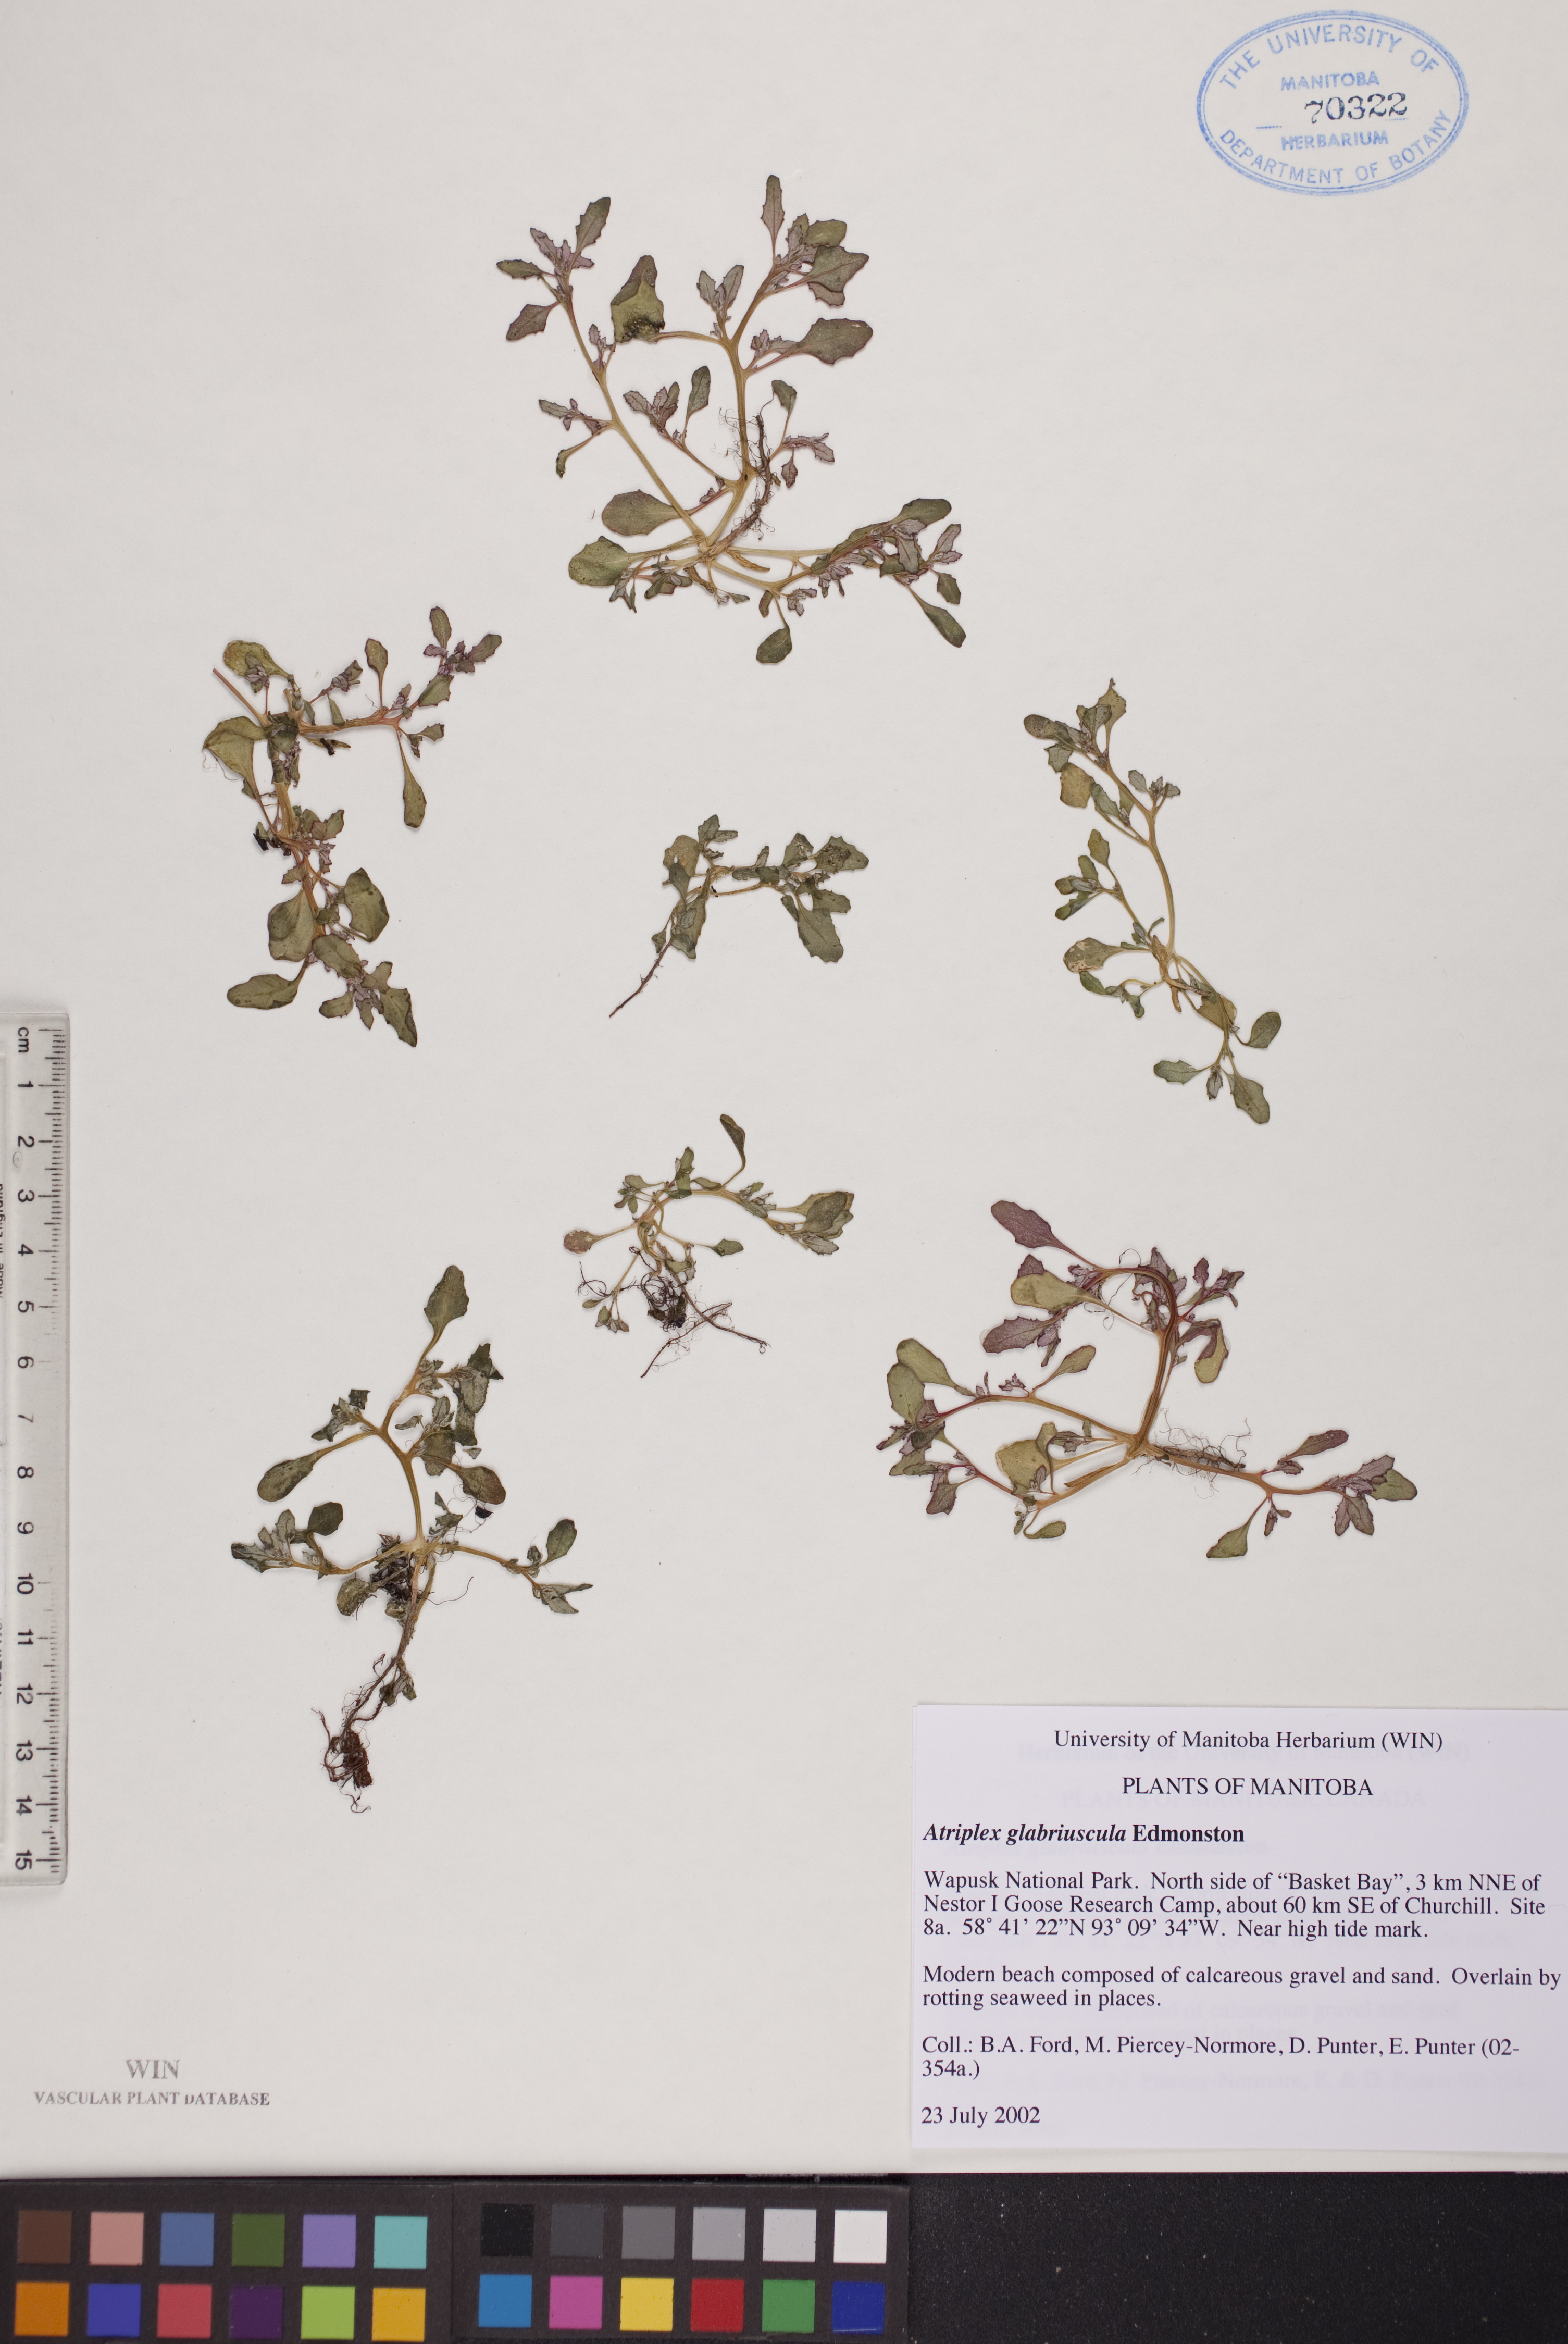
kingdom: Plantae
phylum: Tracheophyta
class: Magnoliopsida
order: Caryophyllales
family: Amaranthaceae
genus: Atriplex
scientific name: Atriplex glabriuscula
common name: Babington's orache
